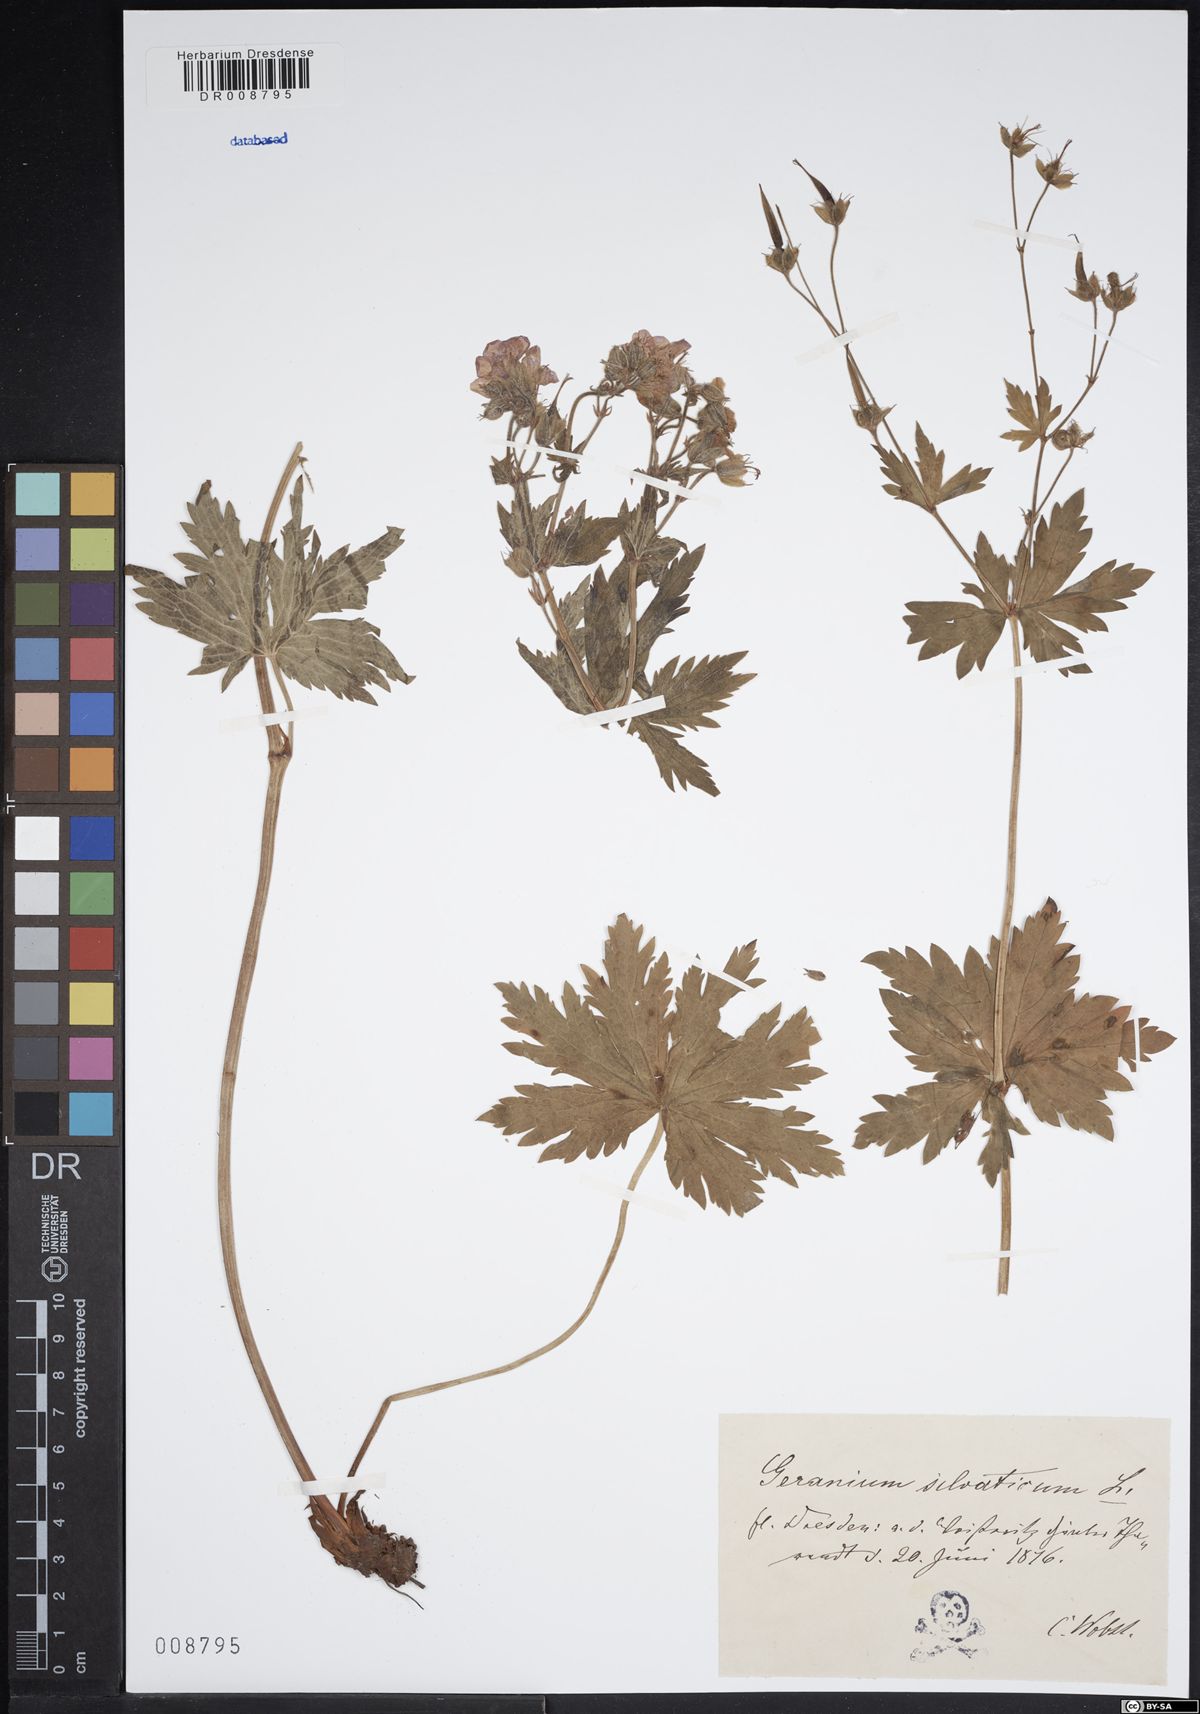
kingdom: Plantae
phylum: Tracheophyta
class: Magnoliopsida
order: Geraniales
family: Geraniaceae
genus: Geranium
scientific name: Geranium sylvaticum
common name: Wood crane's-bill
